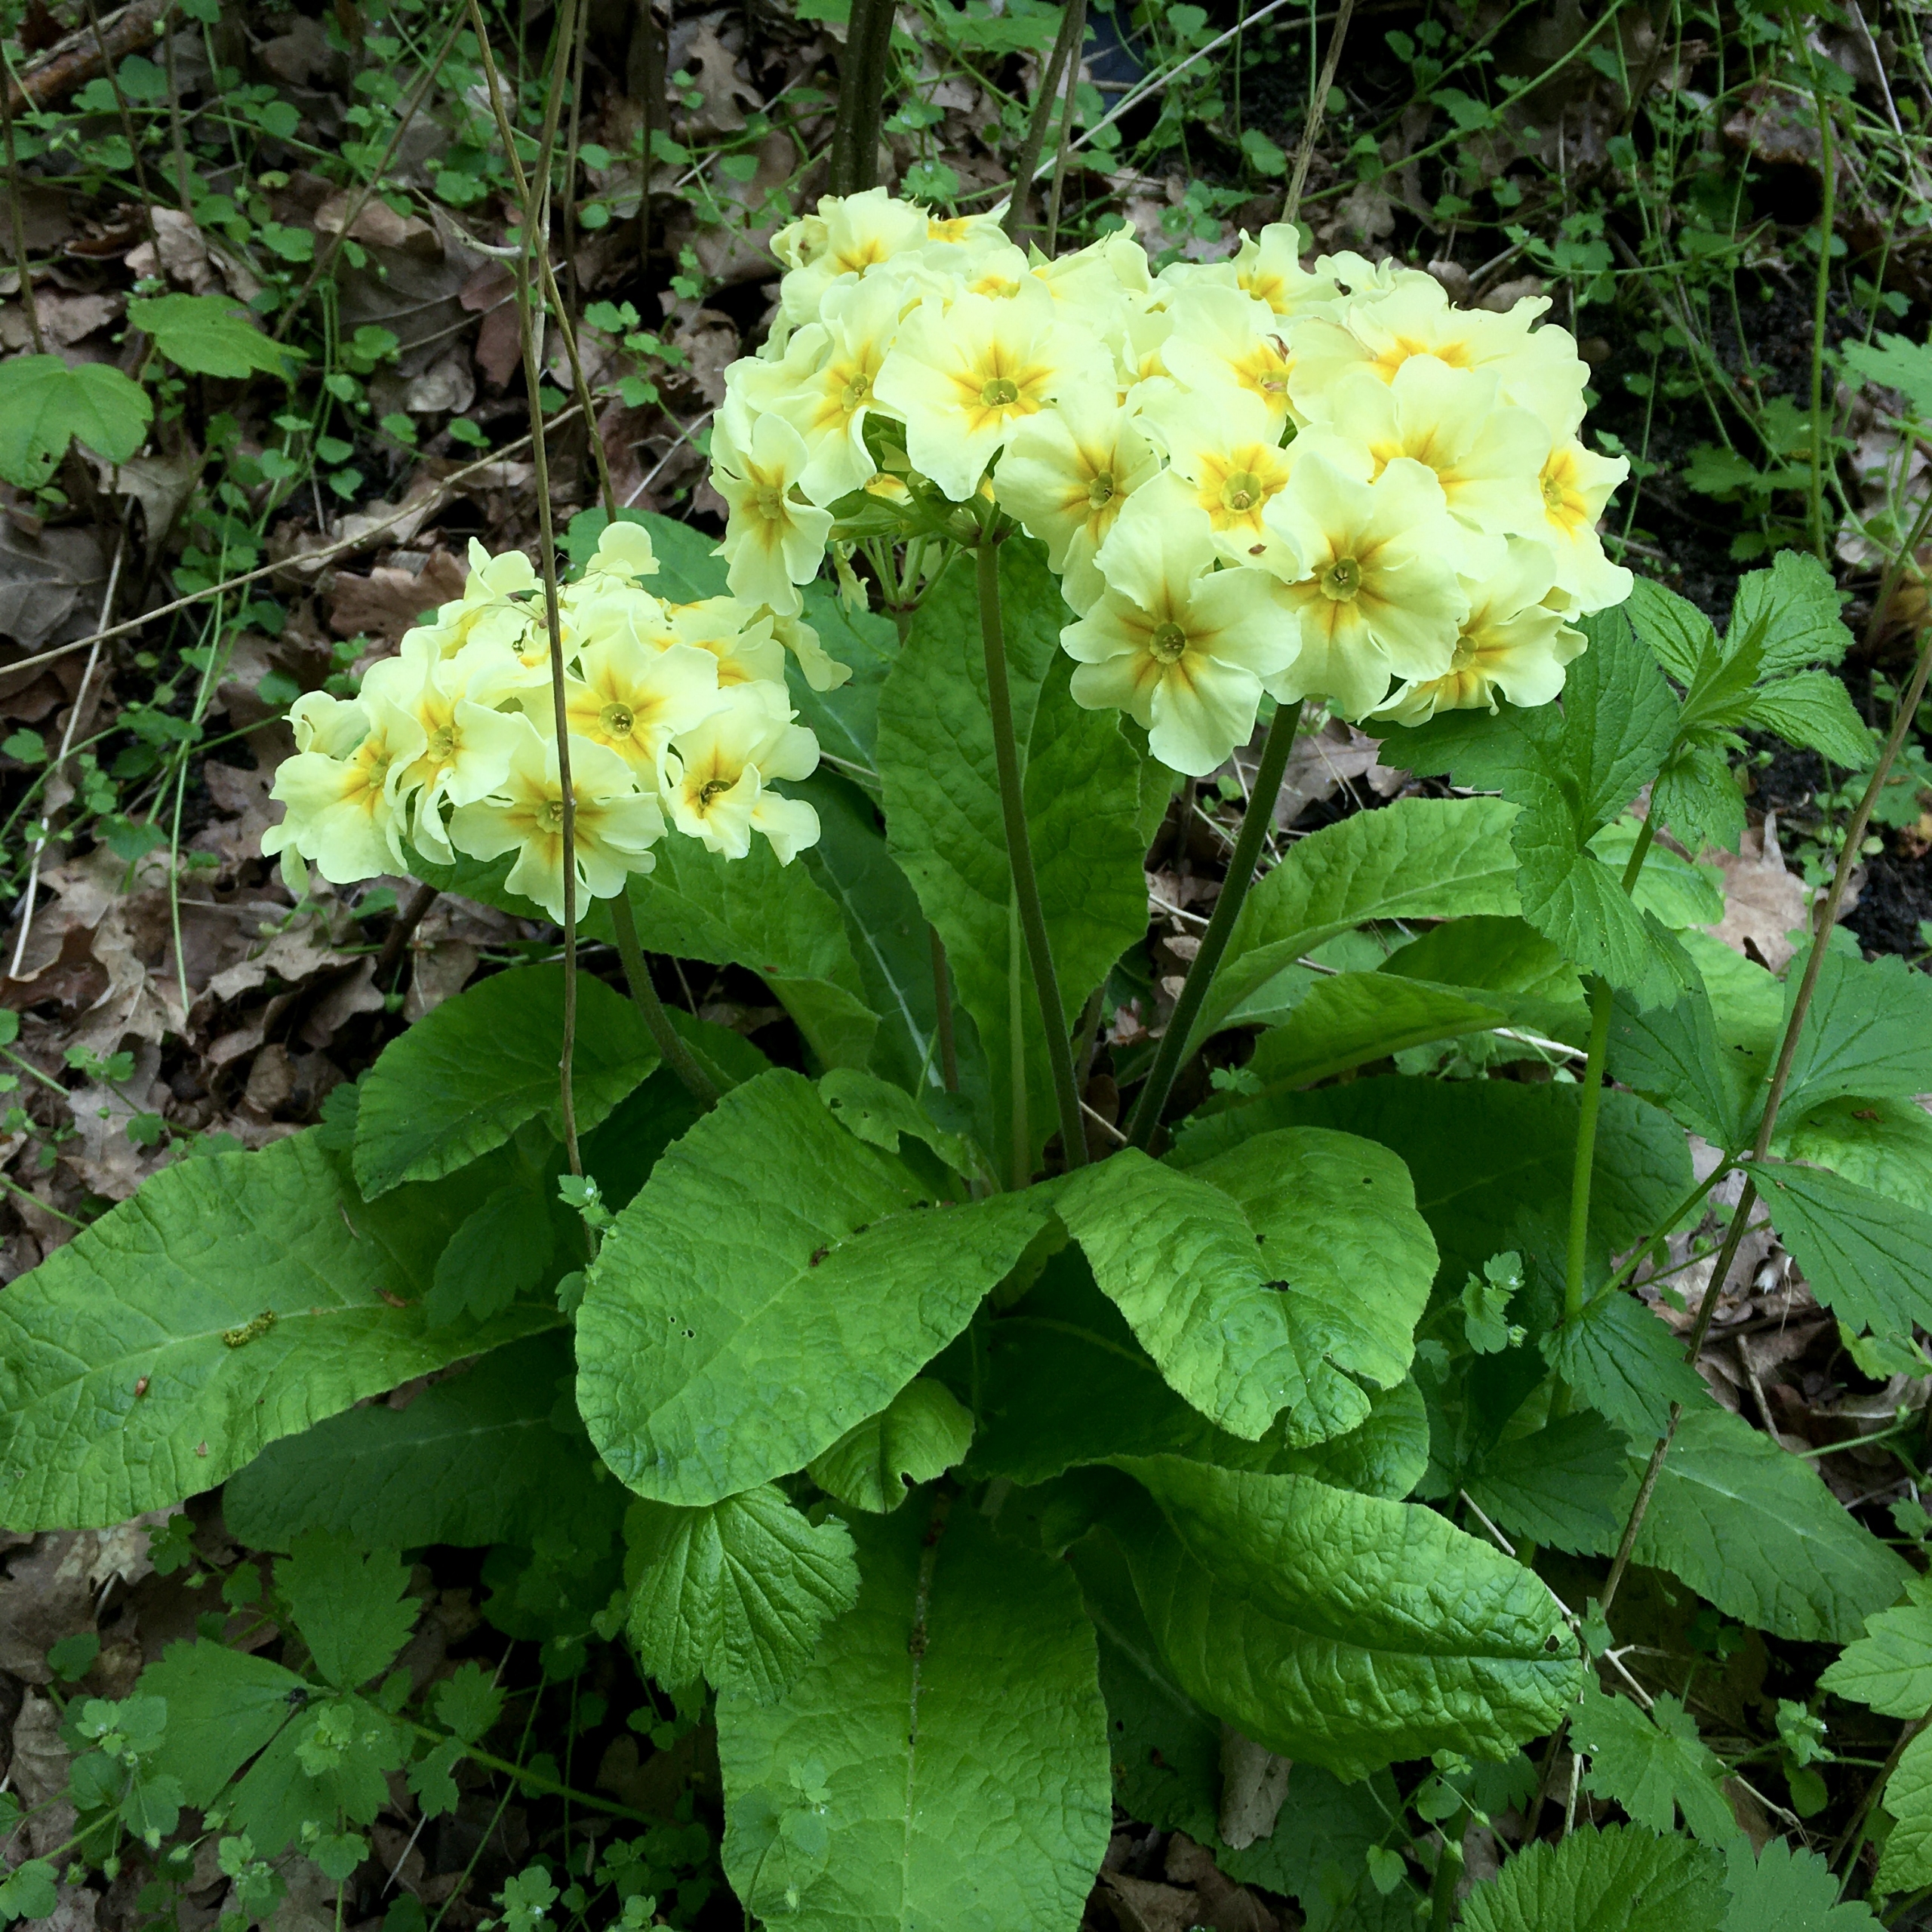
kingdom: Plantae
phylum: Tracheophyta
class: Magnoliopsida
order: Ericales
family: Primulaceae
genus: Primula
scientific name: Primula elatior
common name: Fladkravet kodriver
